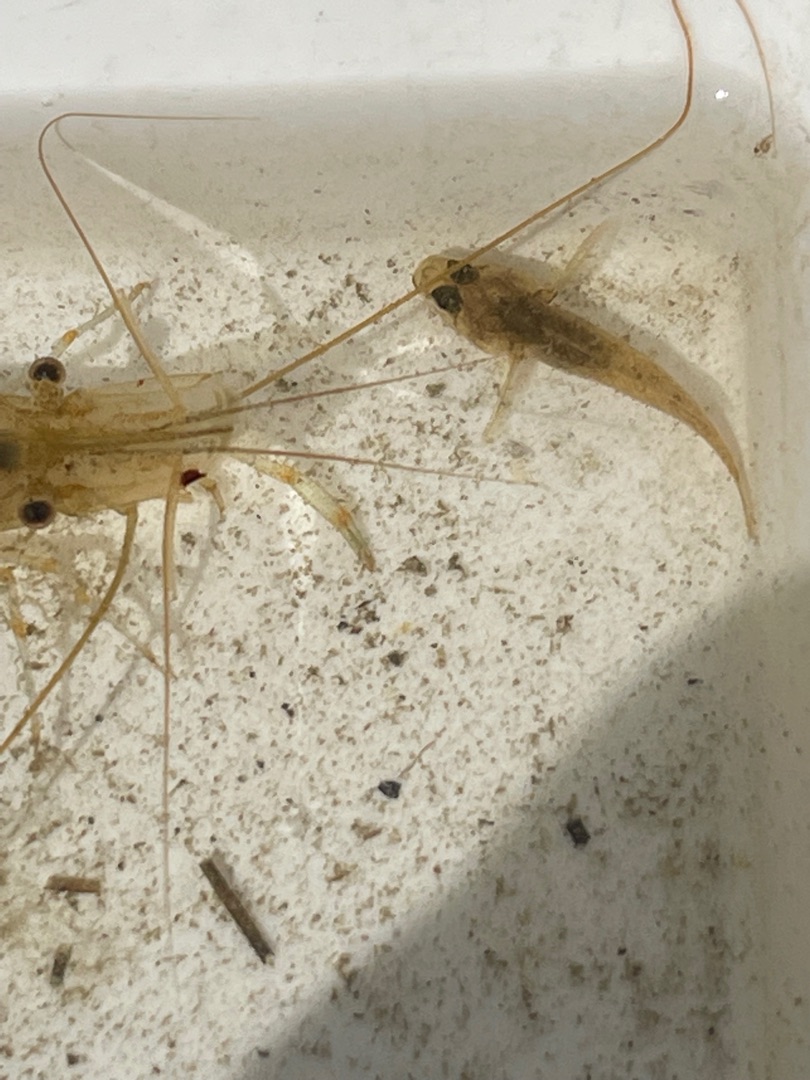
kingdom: Animalia
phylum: Chordata
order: Perciformes
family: Gobiidae
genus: Pomatoschistus
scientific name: Pomatoschistus
